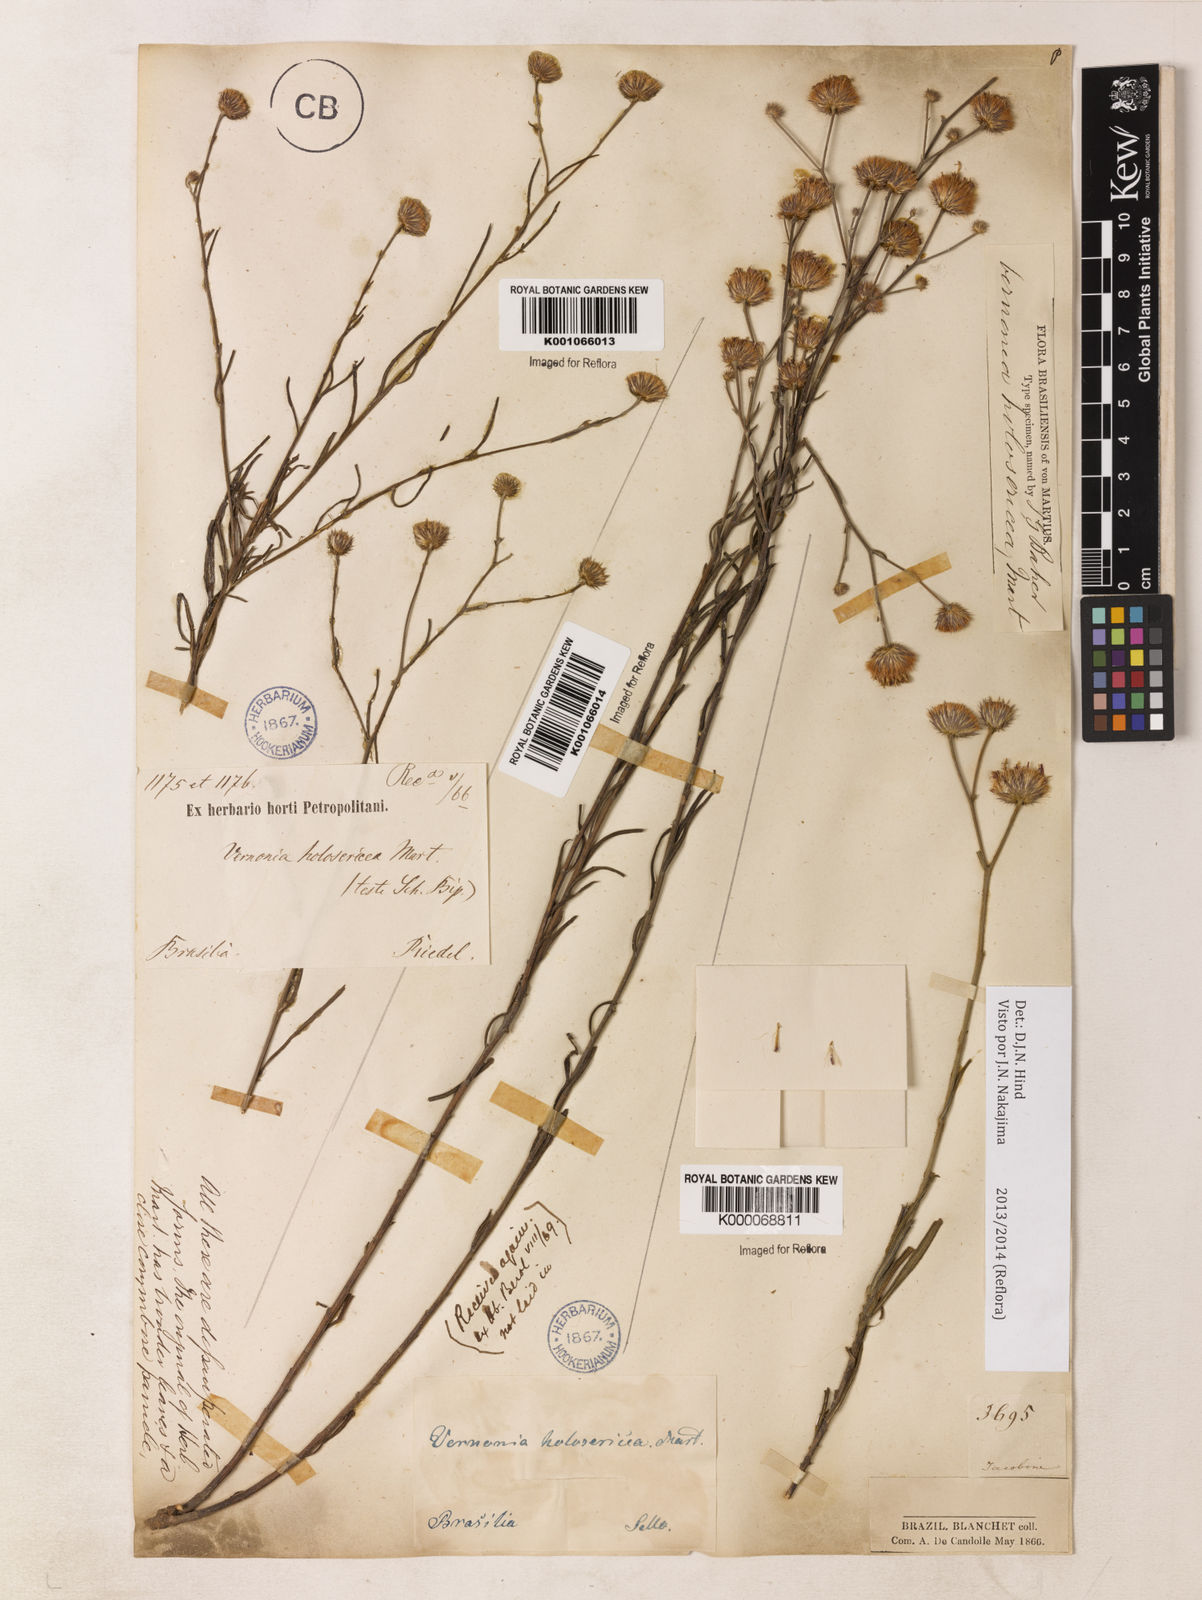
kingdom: Plantae
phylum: Tracheophyta
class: Magnoliopsida
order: Asterales
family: Asteraceae
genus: Echinocoryne
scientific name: Echinocoryne holosericea
